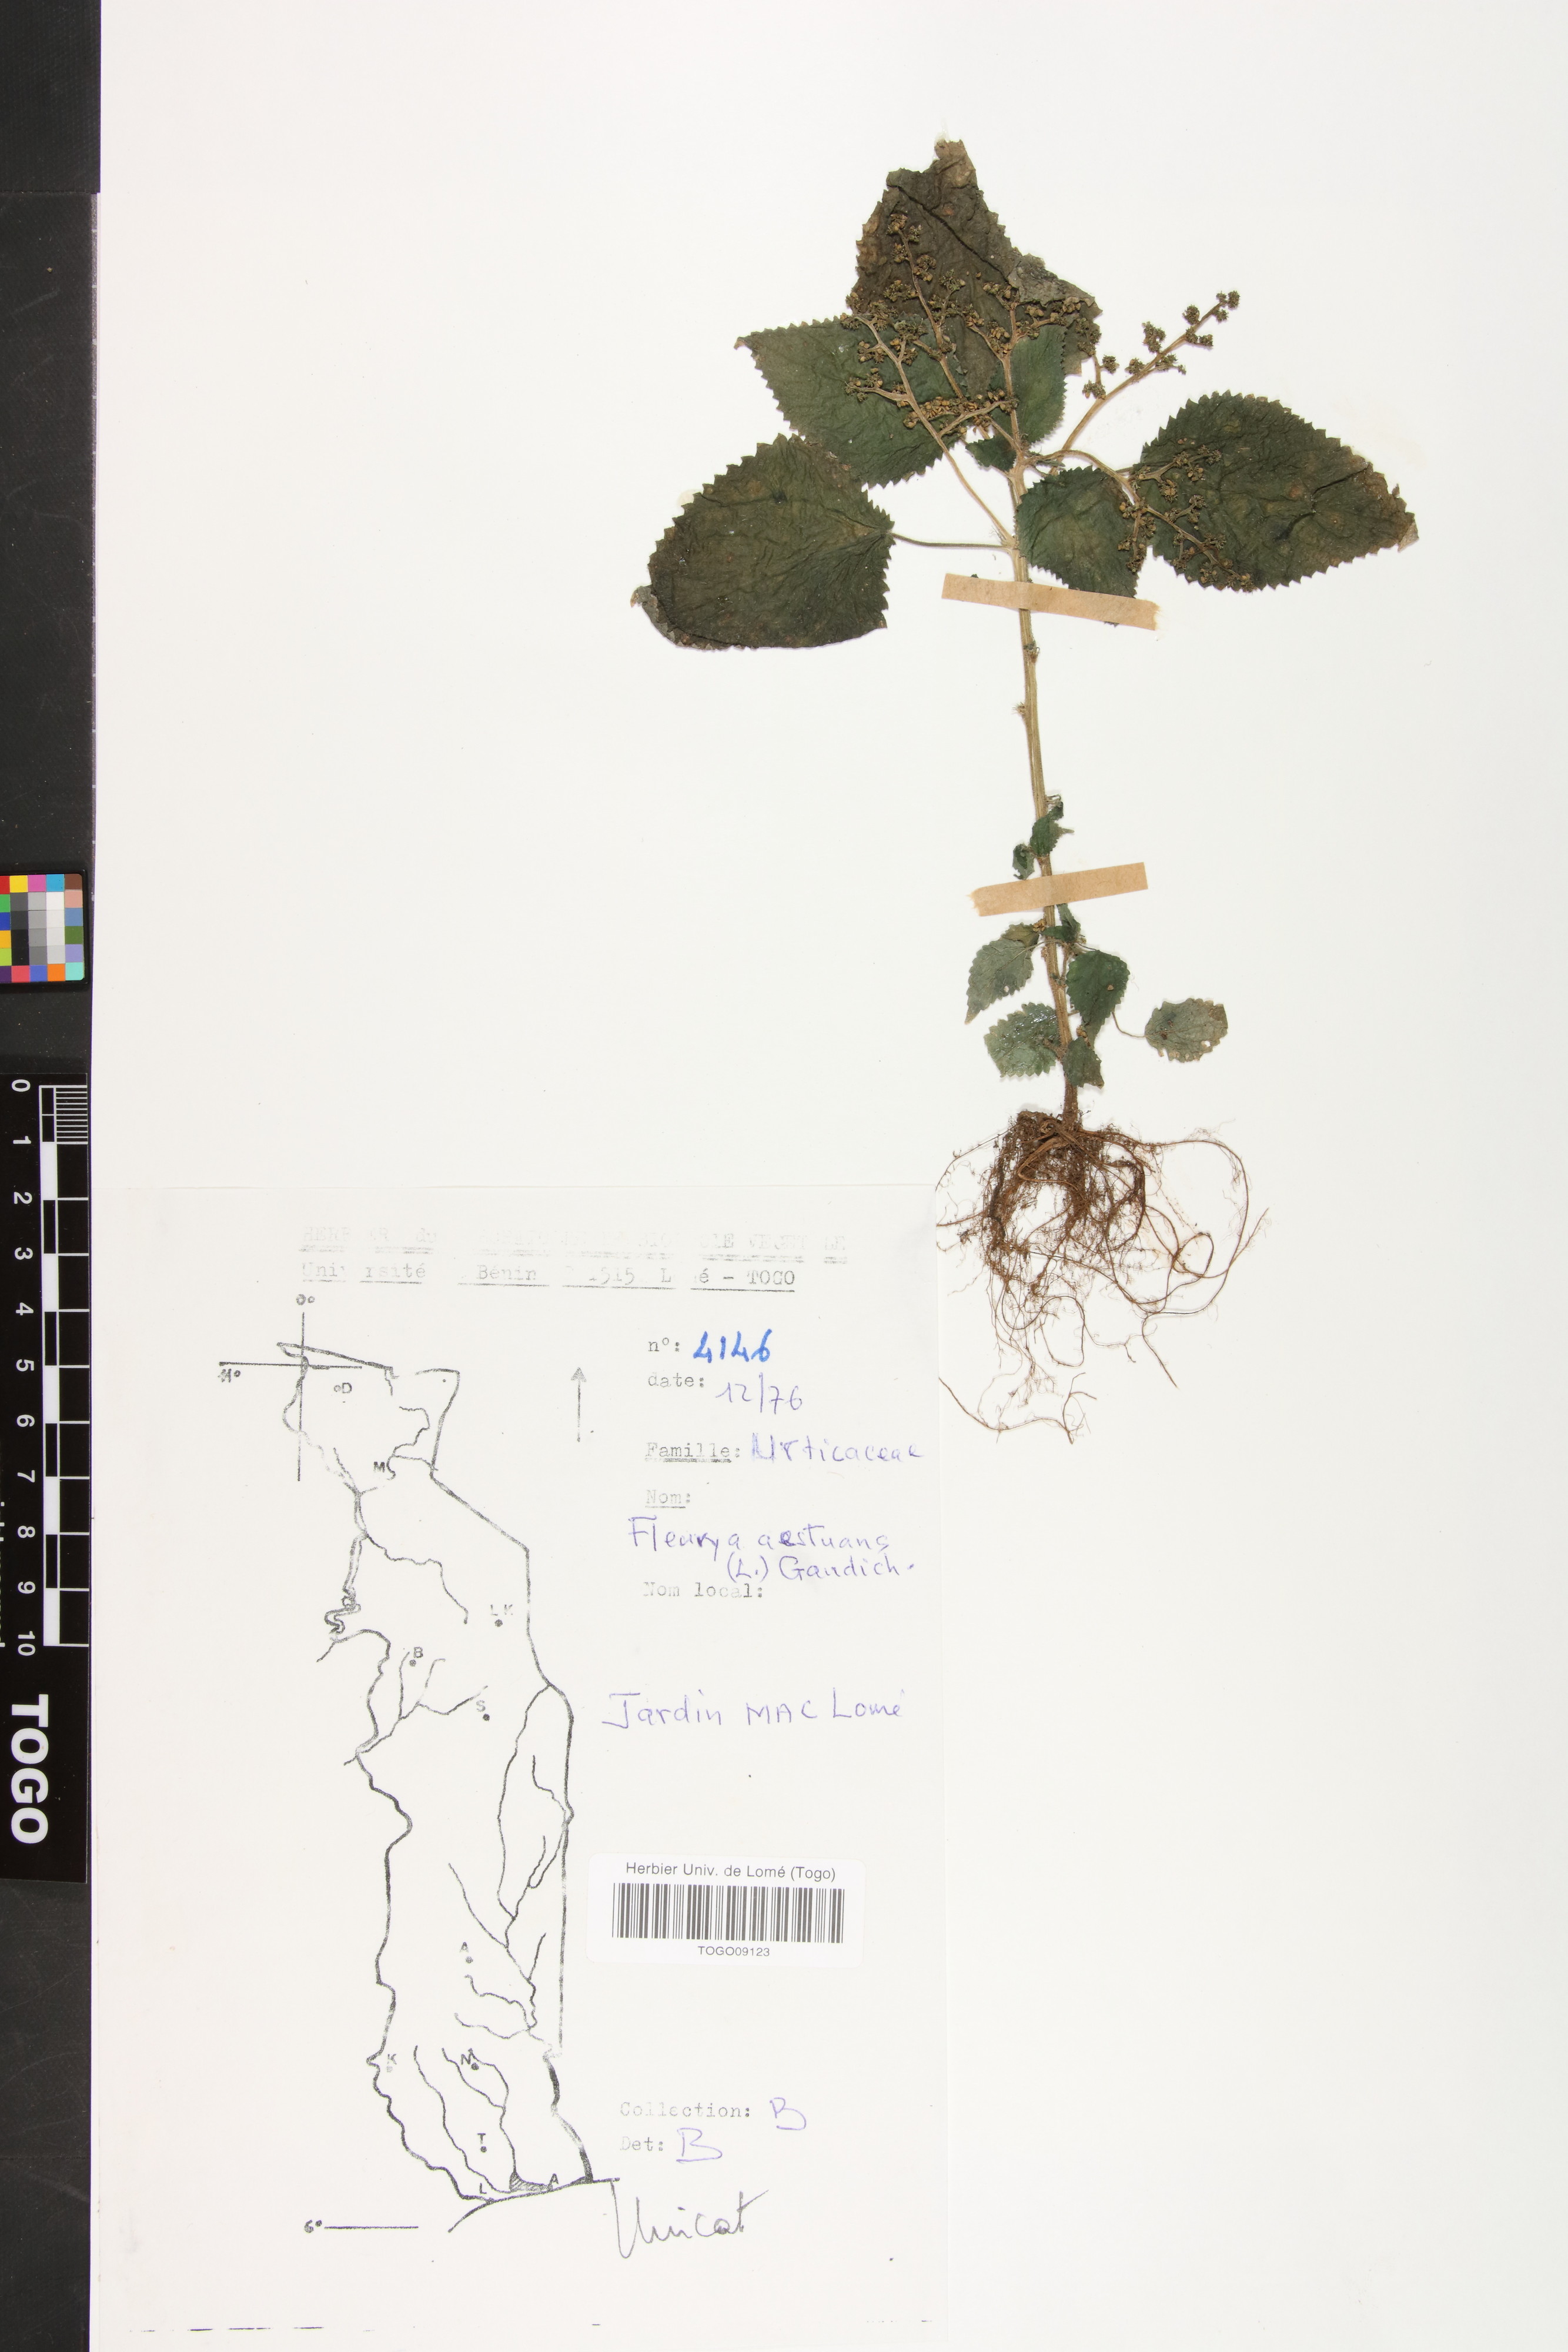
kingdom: Plantae
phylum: Tracheophyta
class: Magnoliopsida
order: Rosales
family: Urticaceae
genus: Laportea
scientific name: Laportea aestuans
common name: West indian woodnettle
